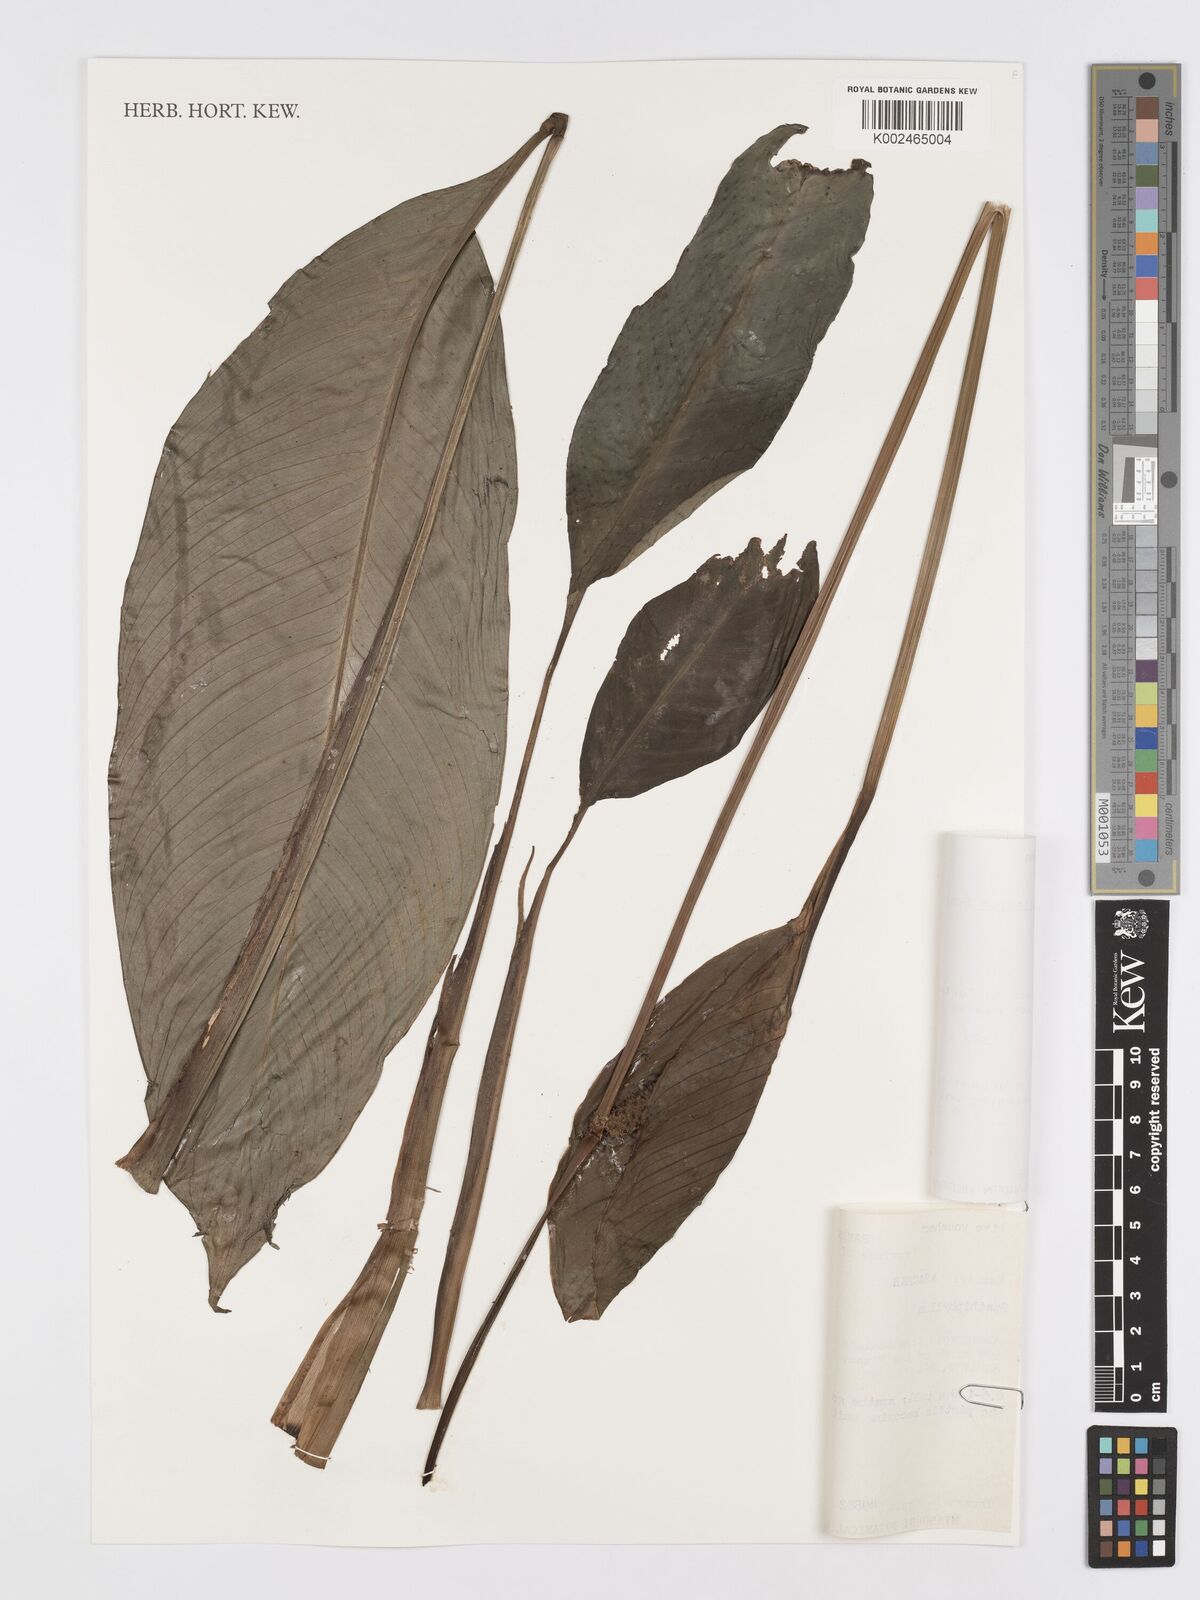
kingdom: Plantae
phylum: Tracheophyta
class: Liliopsida
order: Alismatales
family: Araceae
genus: Spathiphyllum
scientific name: Spathiphyllum phryniifolium
